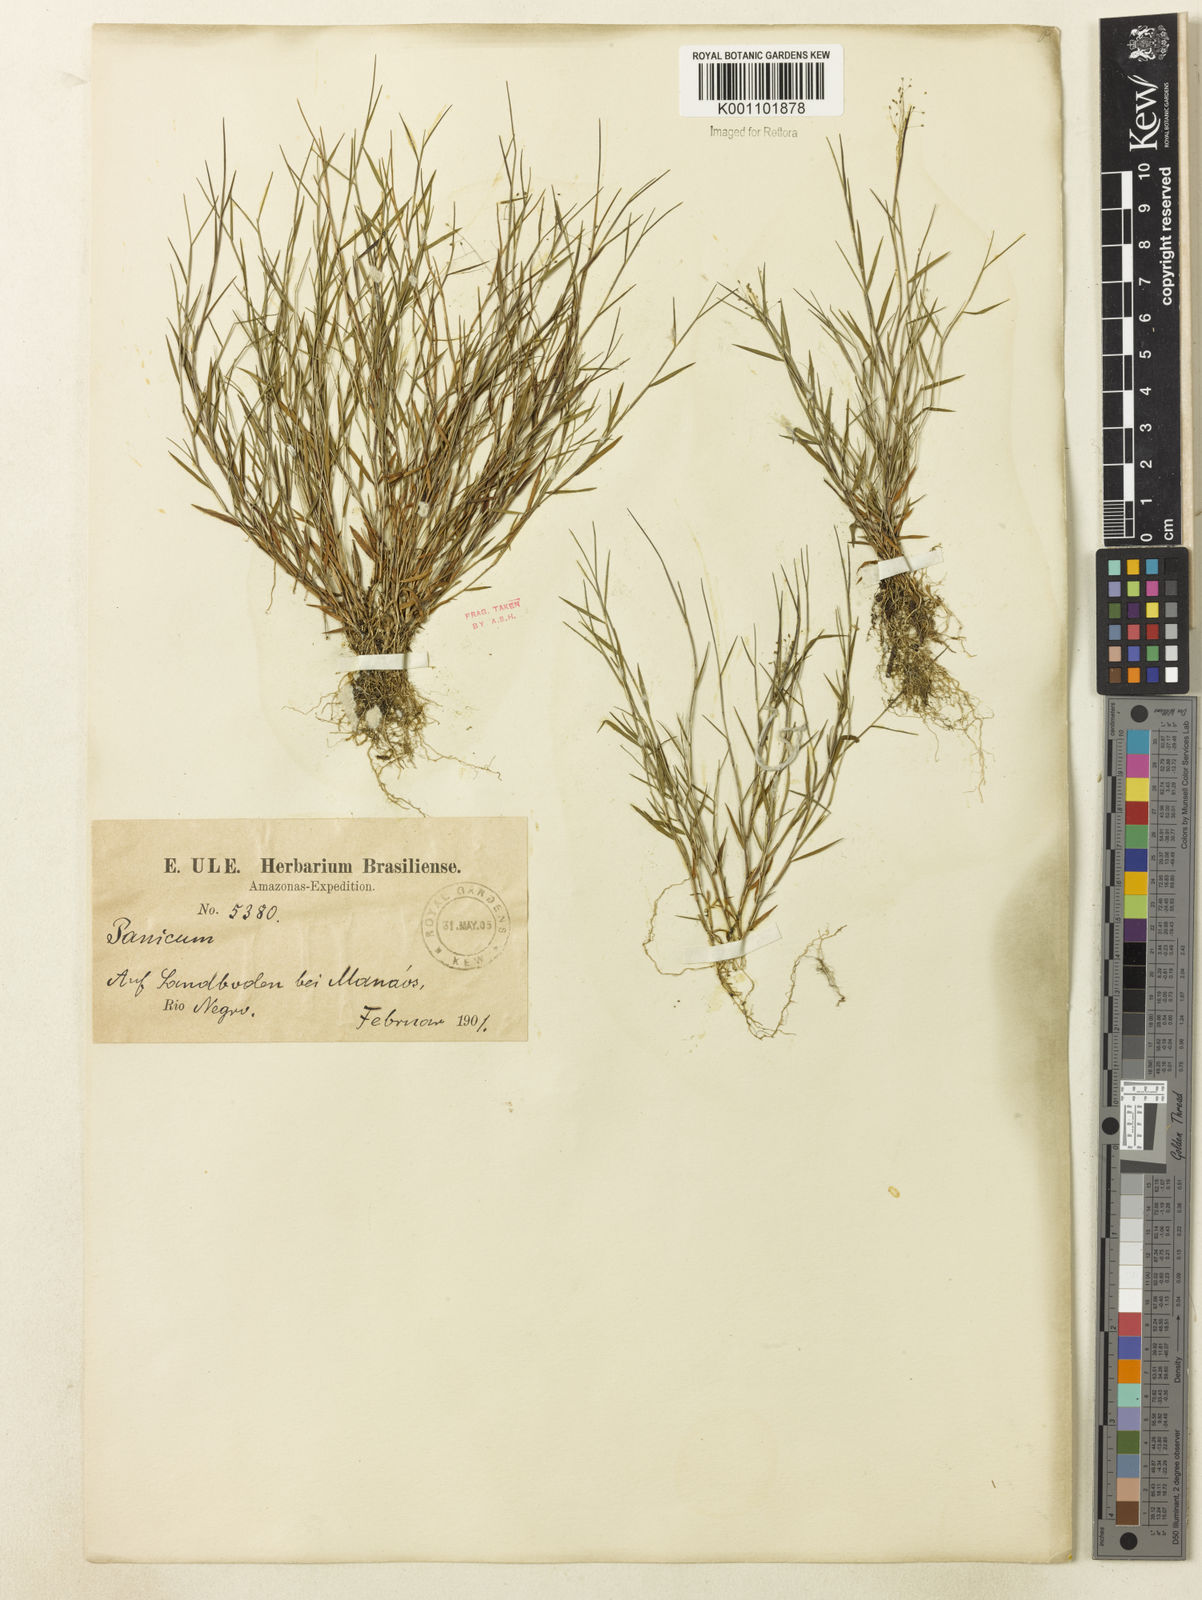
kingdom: Plantae
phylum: Tracheophyta
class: Liliopsida
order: Poales
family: Poaceae
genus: Trichanthecium
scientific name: Trichanthecium polycomum
